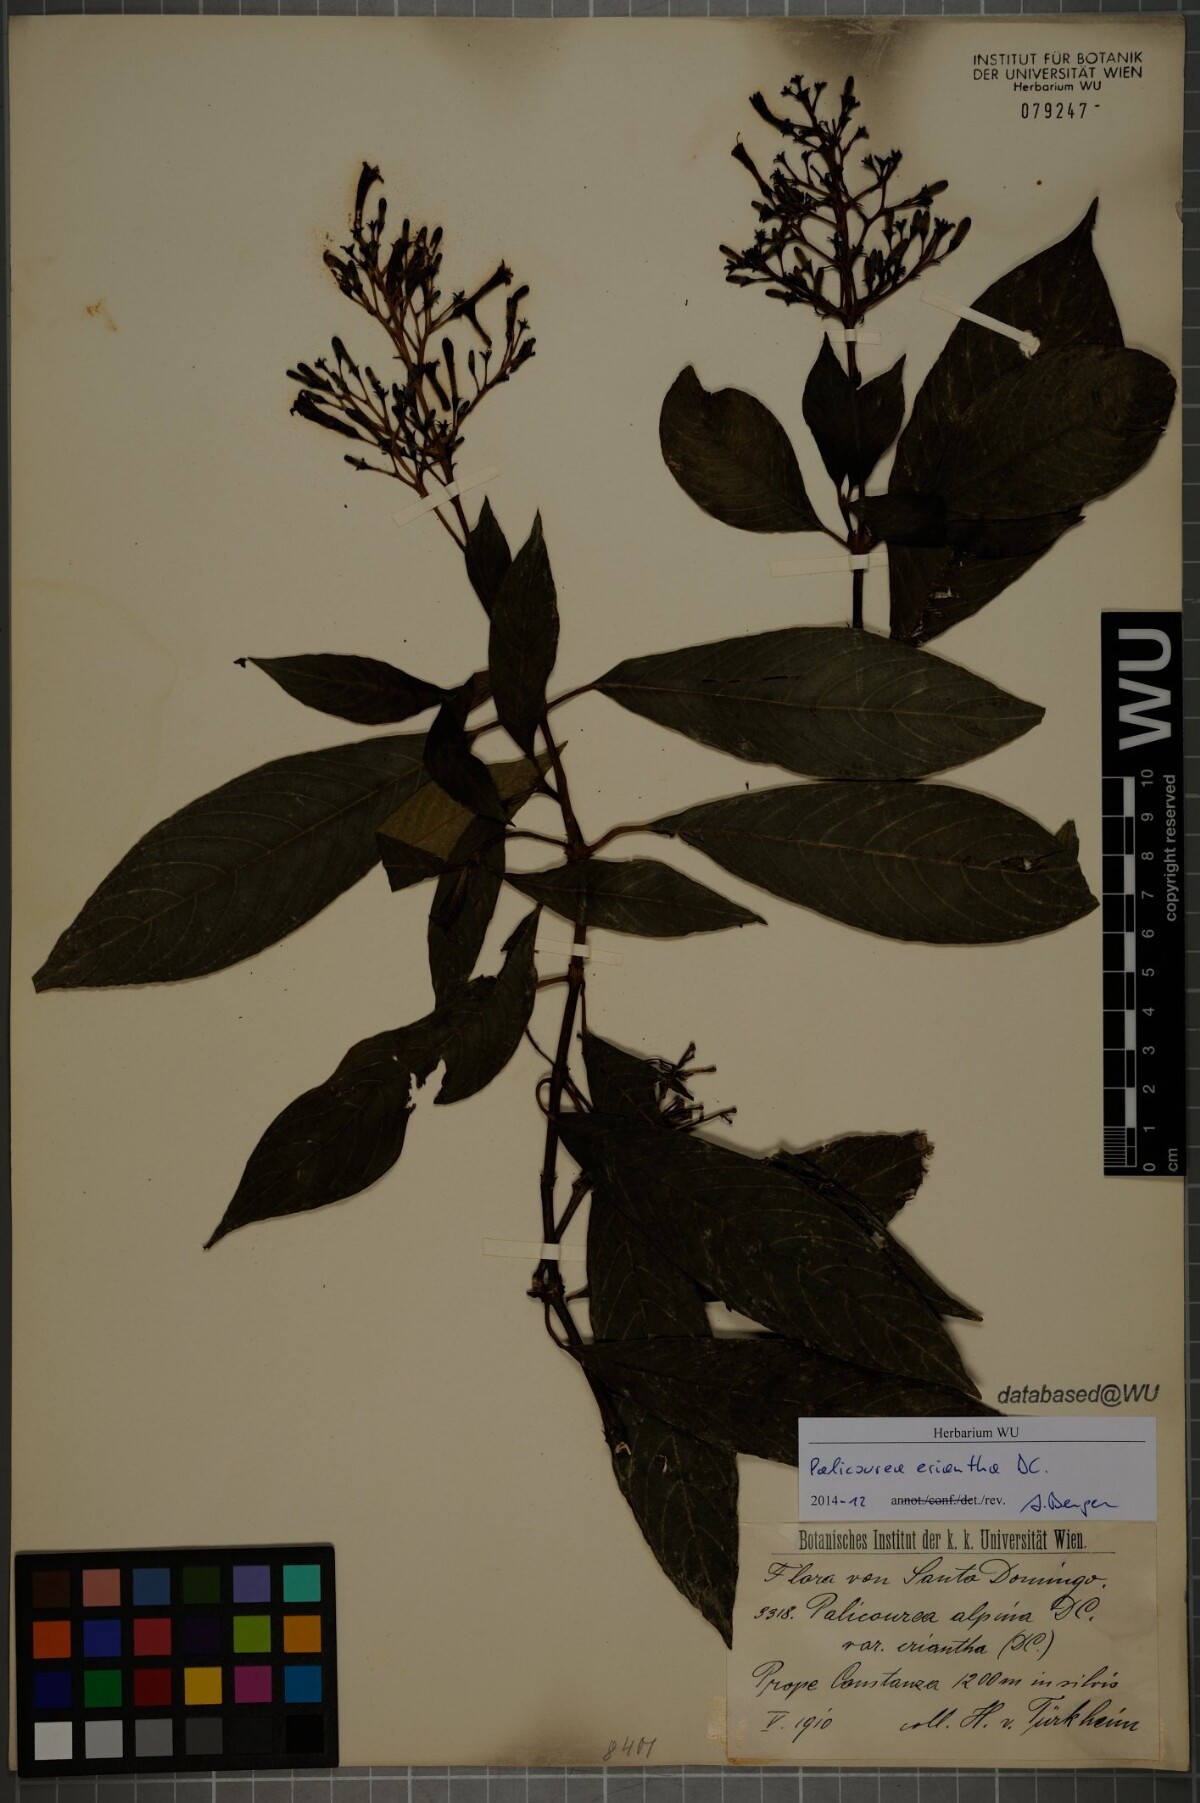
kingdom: Plantae
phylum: Tracheophyta
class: Magnoliopsida
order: Gentianales
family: Rubiaceae
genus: Palicourea
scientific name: Palicourea eriantha
